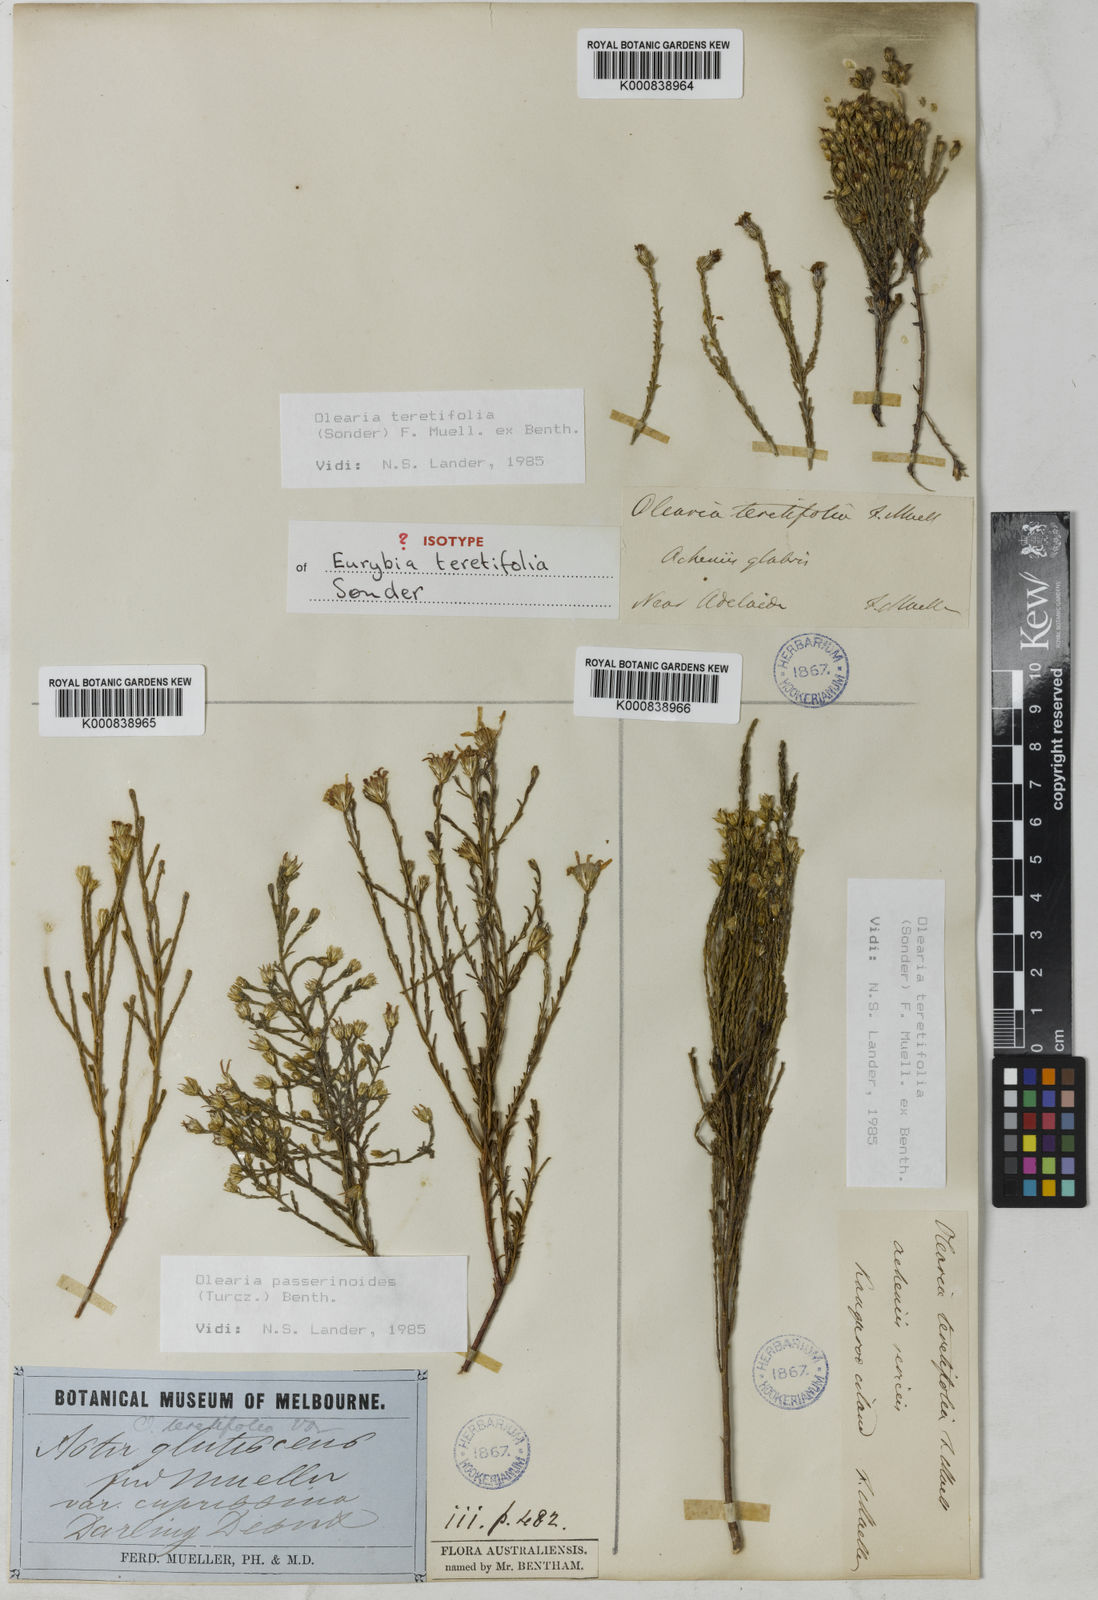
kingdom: Plantae
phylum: Tracheophyta
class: Magnoliopsida
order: Asterales
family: Asteraceae
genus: Olearia
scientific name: Olearia
